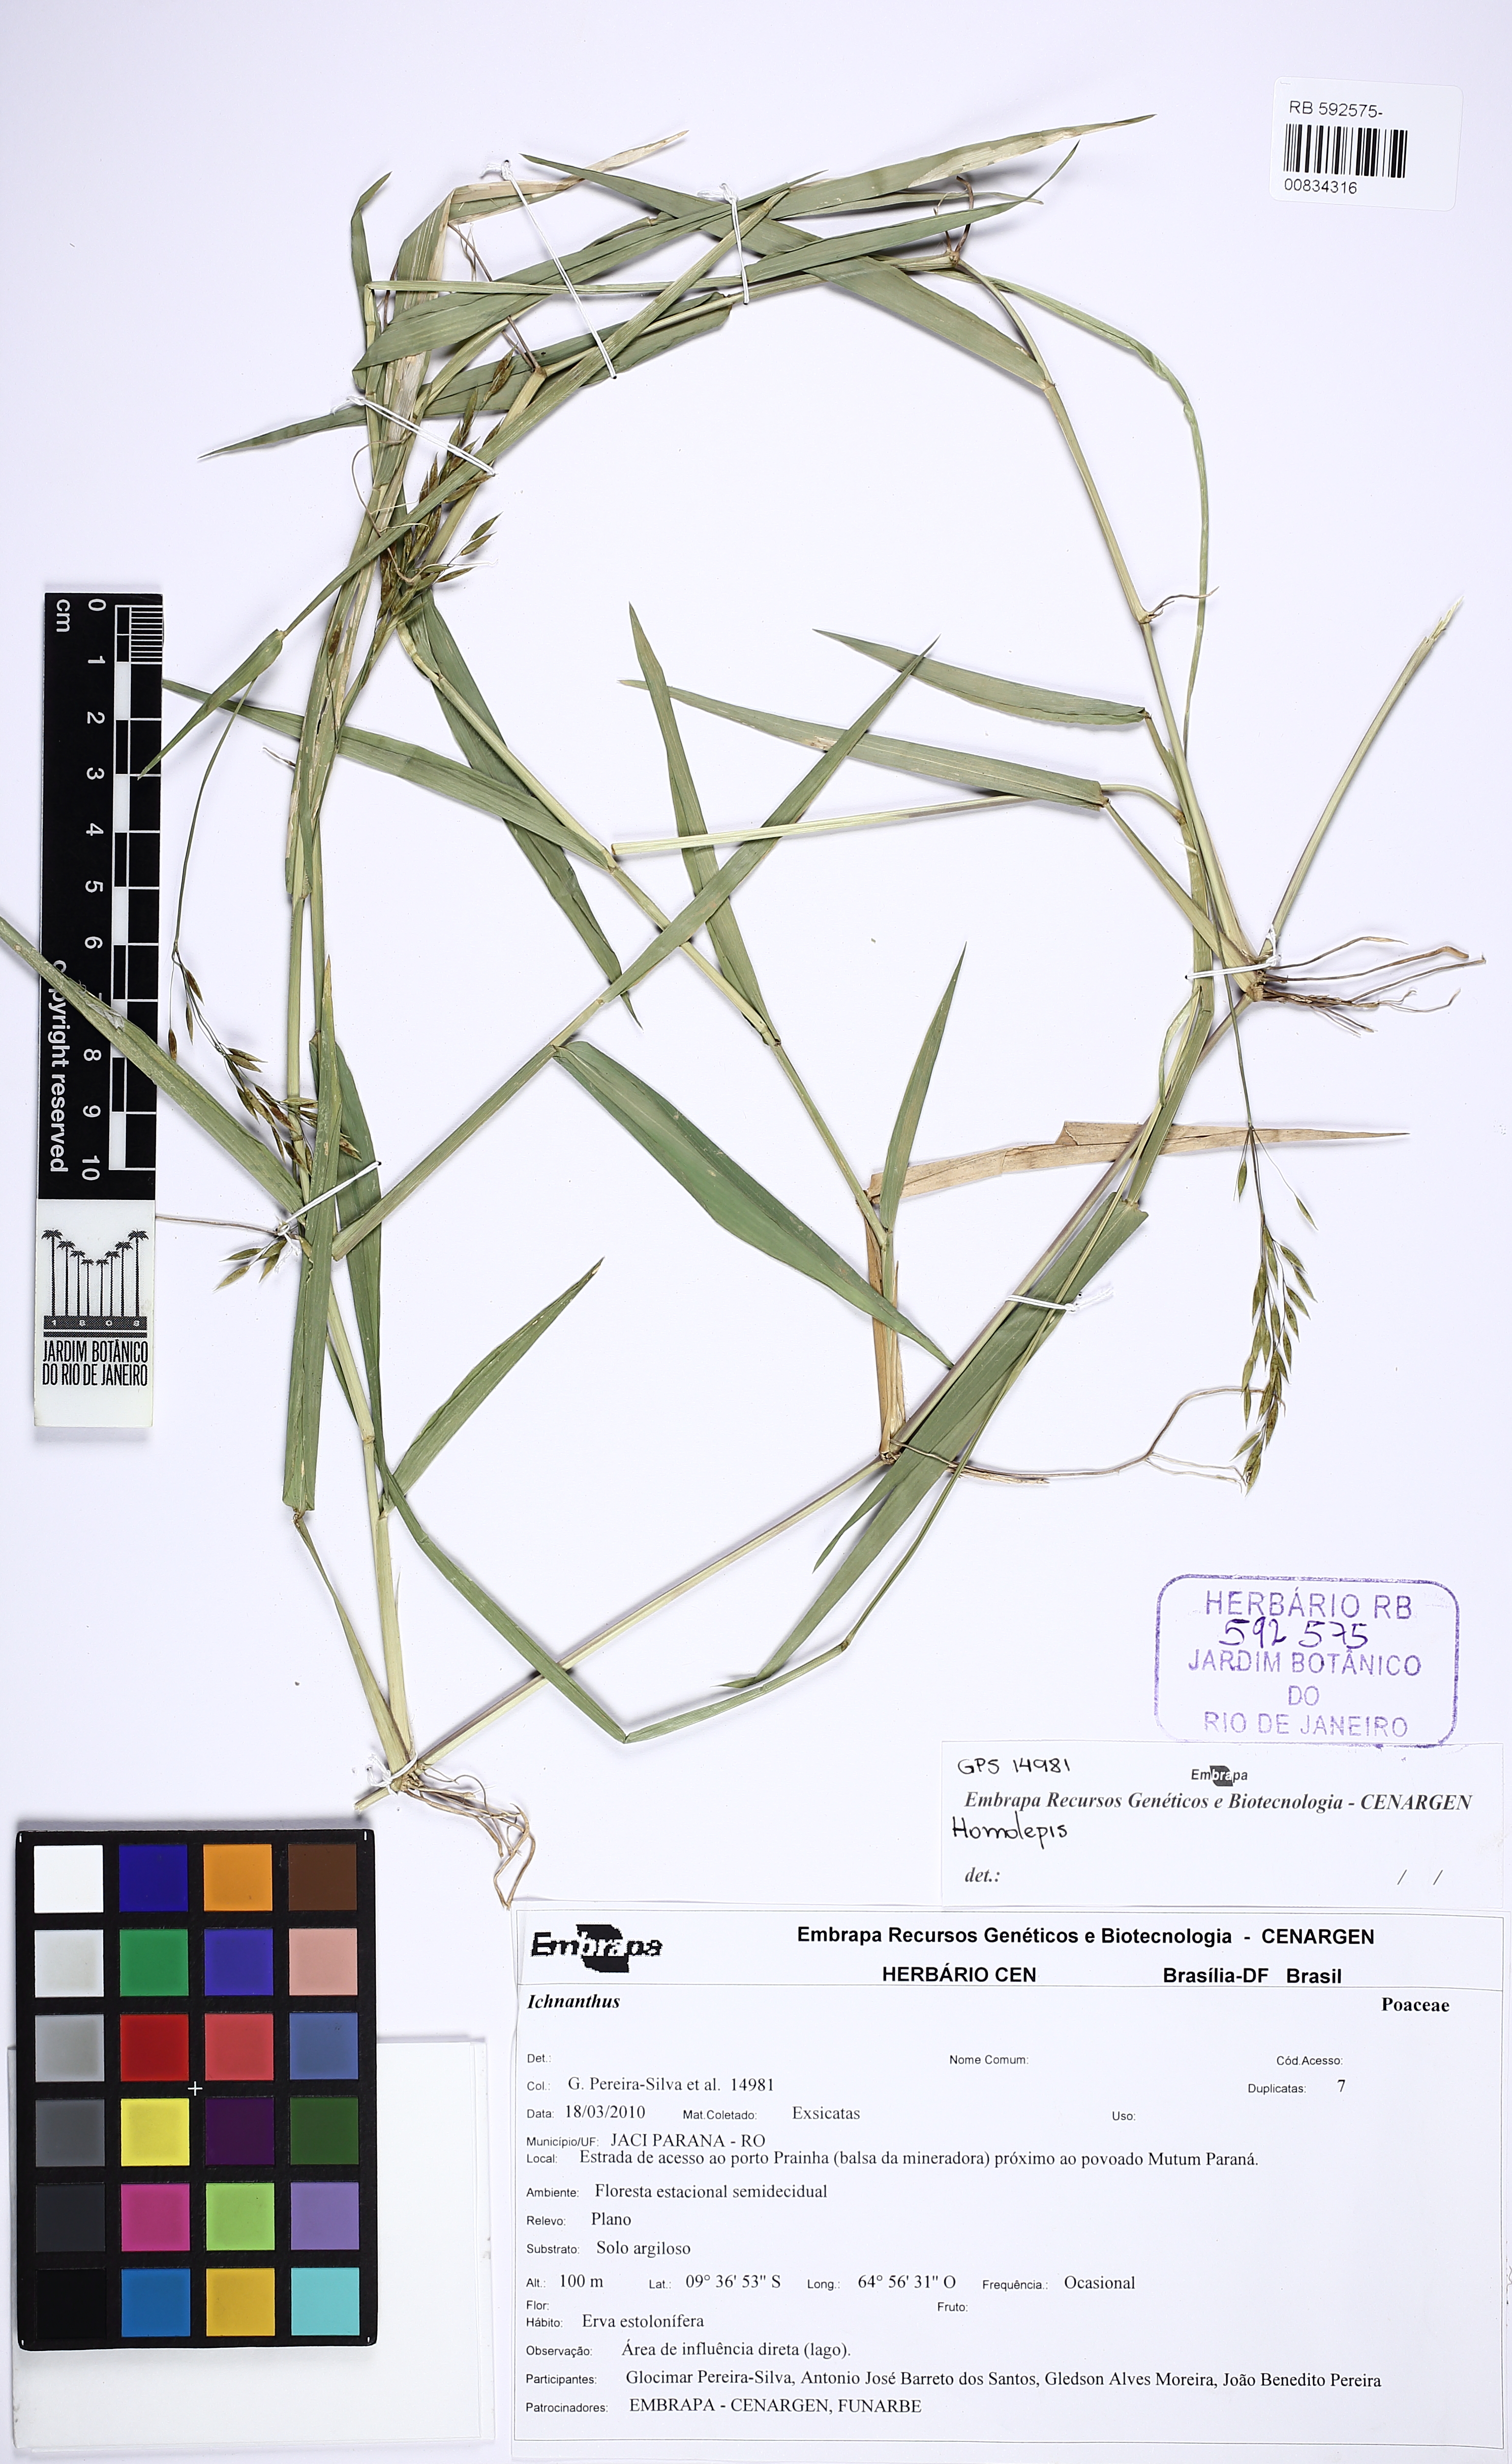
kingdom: Plantae
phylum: Tracheophyta
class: Liliopsida
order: Poales
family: Poaceae
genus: Homolepis
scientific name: Homolepis
